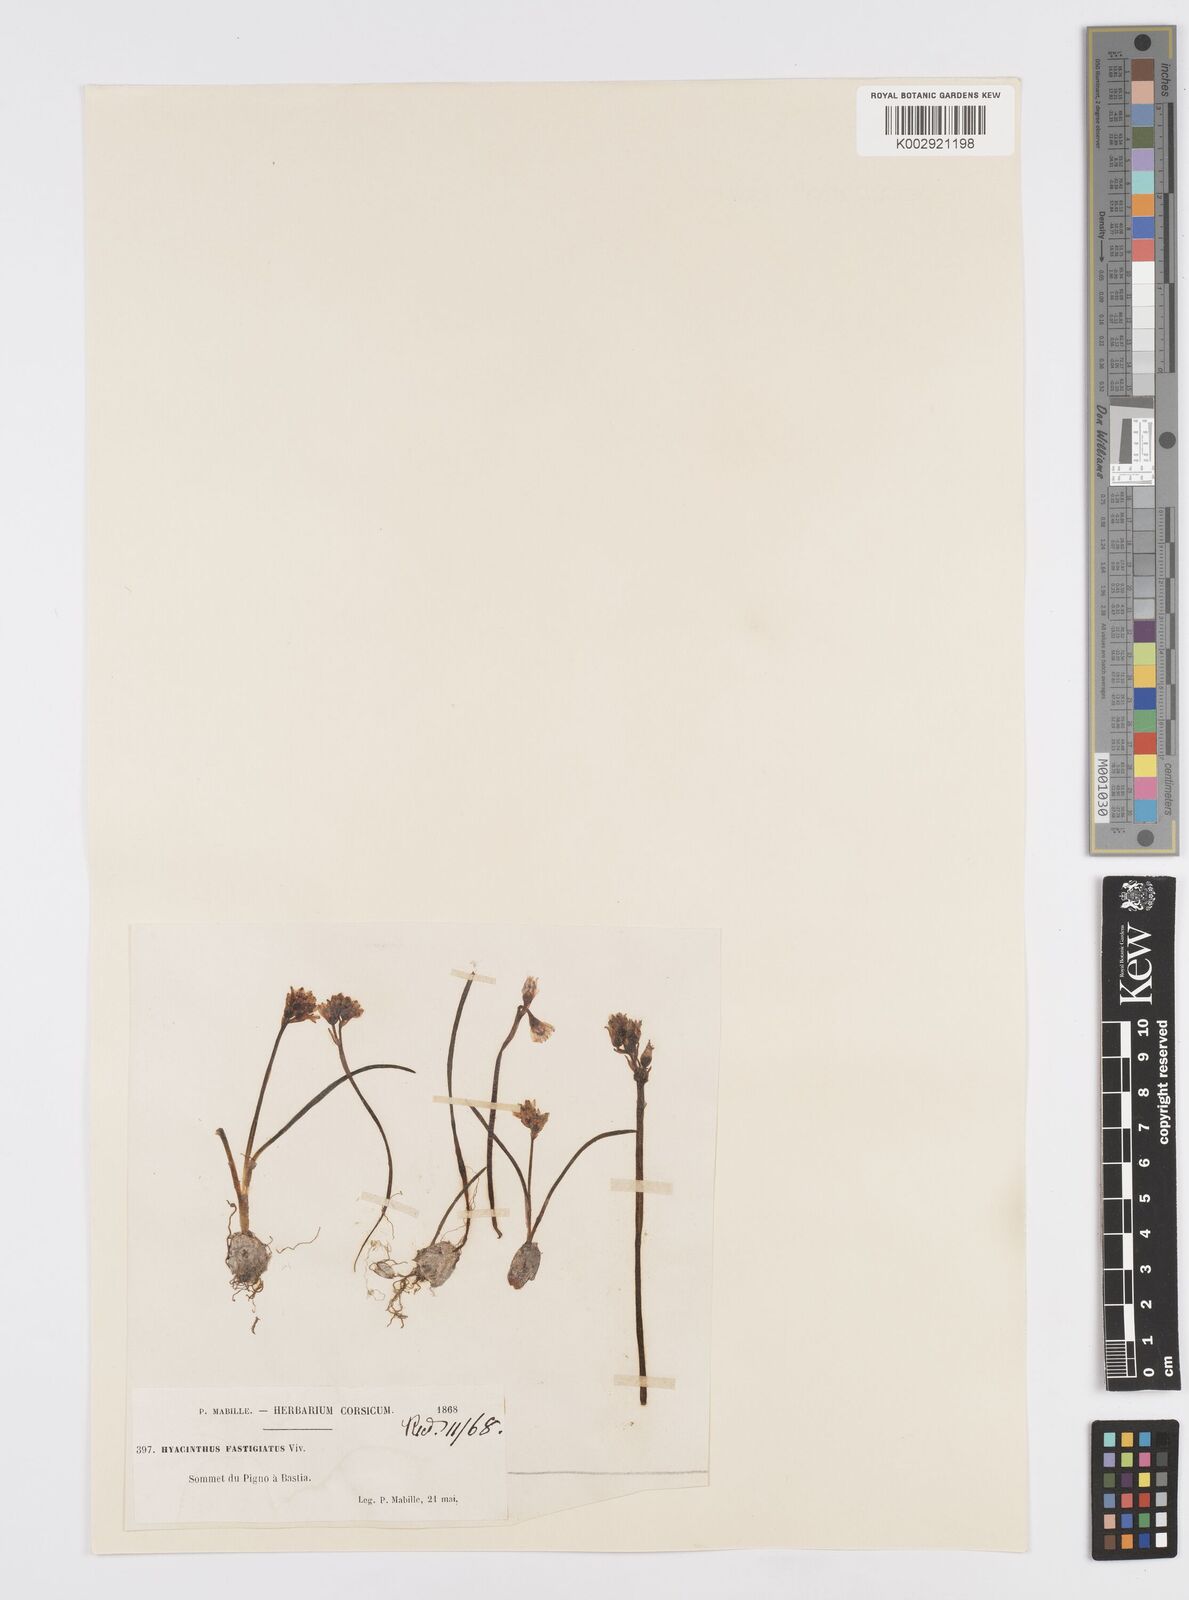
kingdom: Plantae
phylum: Tracheophyta
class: Liliopsida
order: Asparagales
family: Asparagaceae
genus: Brimeura
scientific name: Brimeura fastigiata
